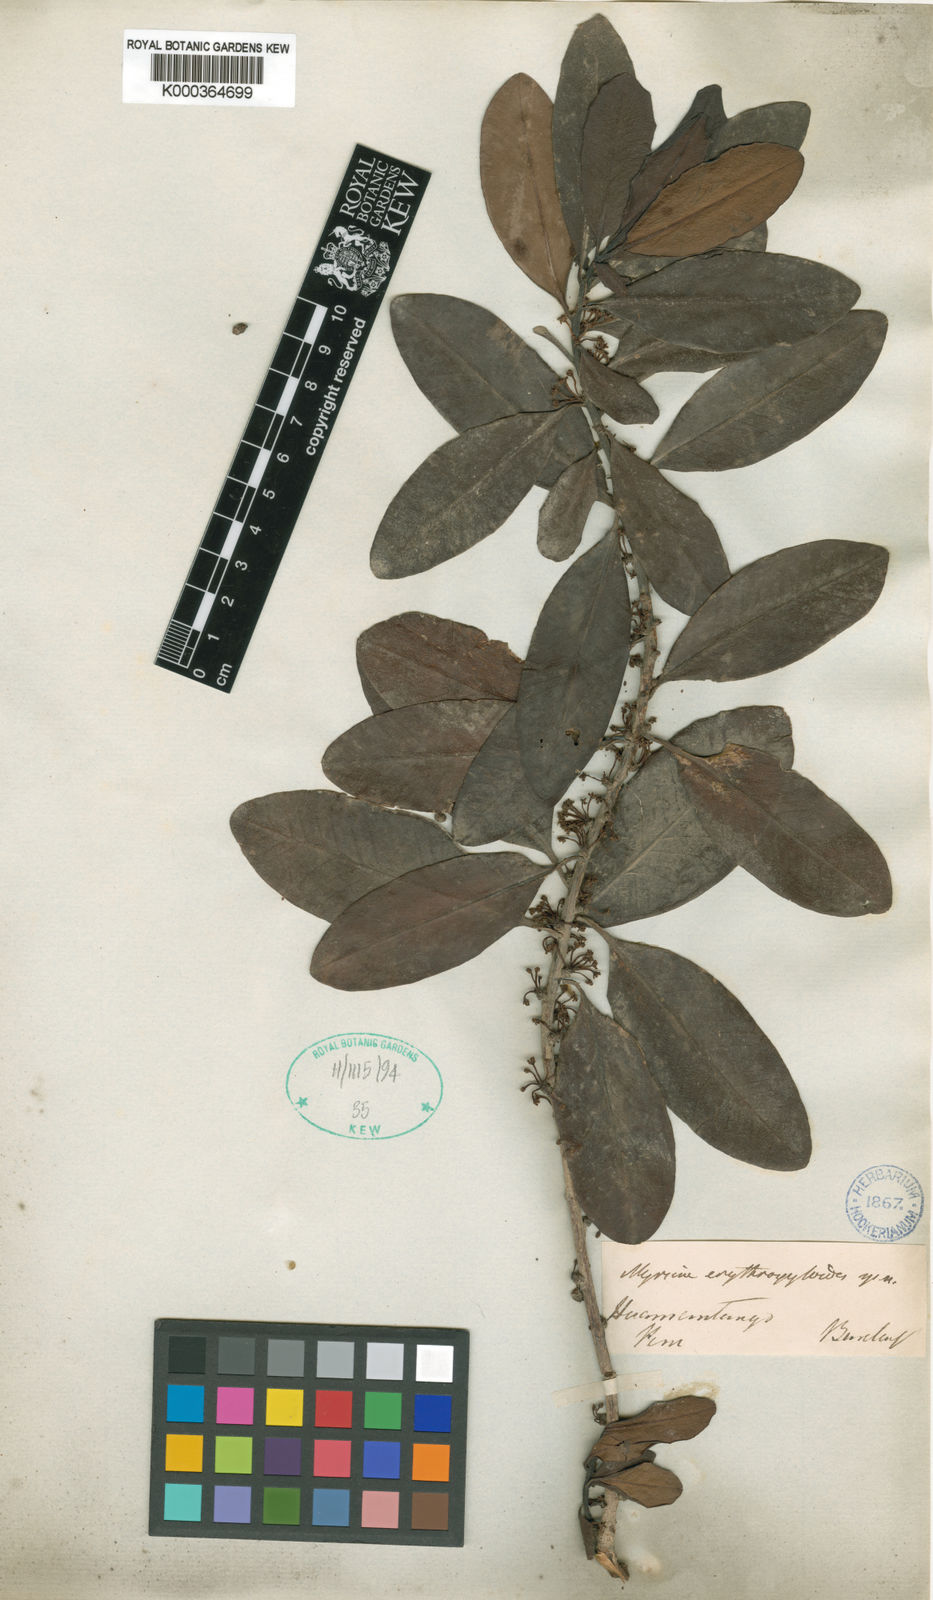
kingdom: Plantae
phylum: Tracheophyta
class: Magnoliopsida
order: Ericales
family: Primulaceae
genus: Myrsine
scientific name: Myrsine manglillo
